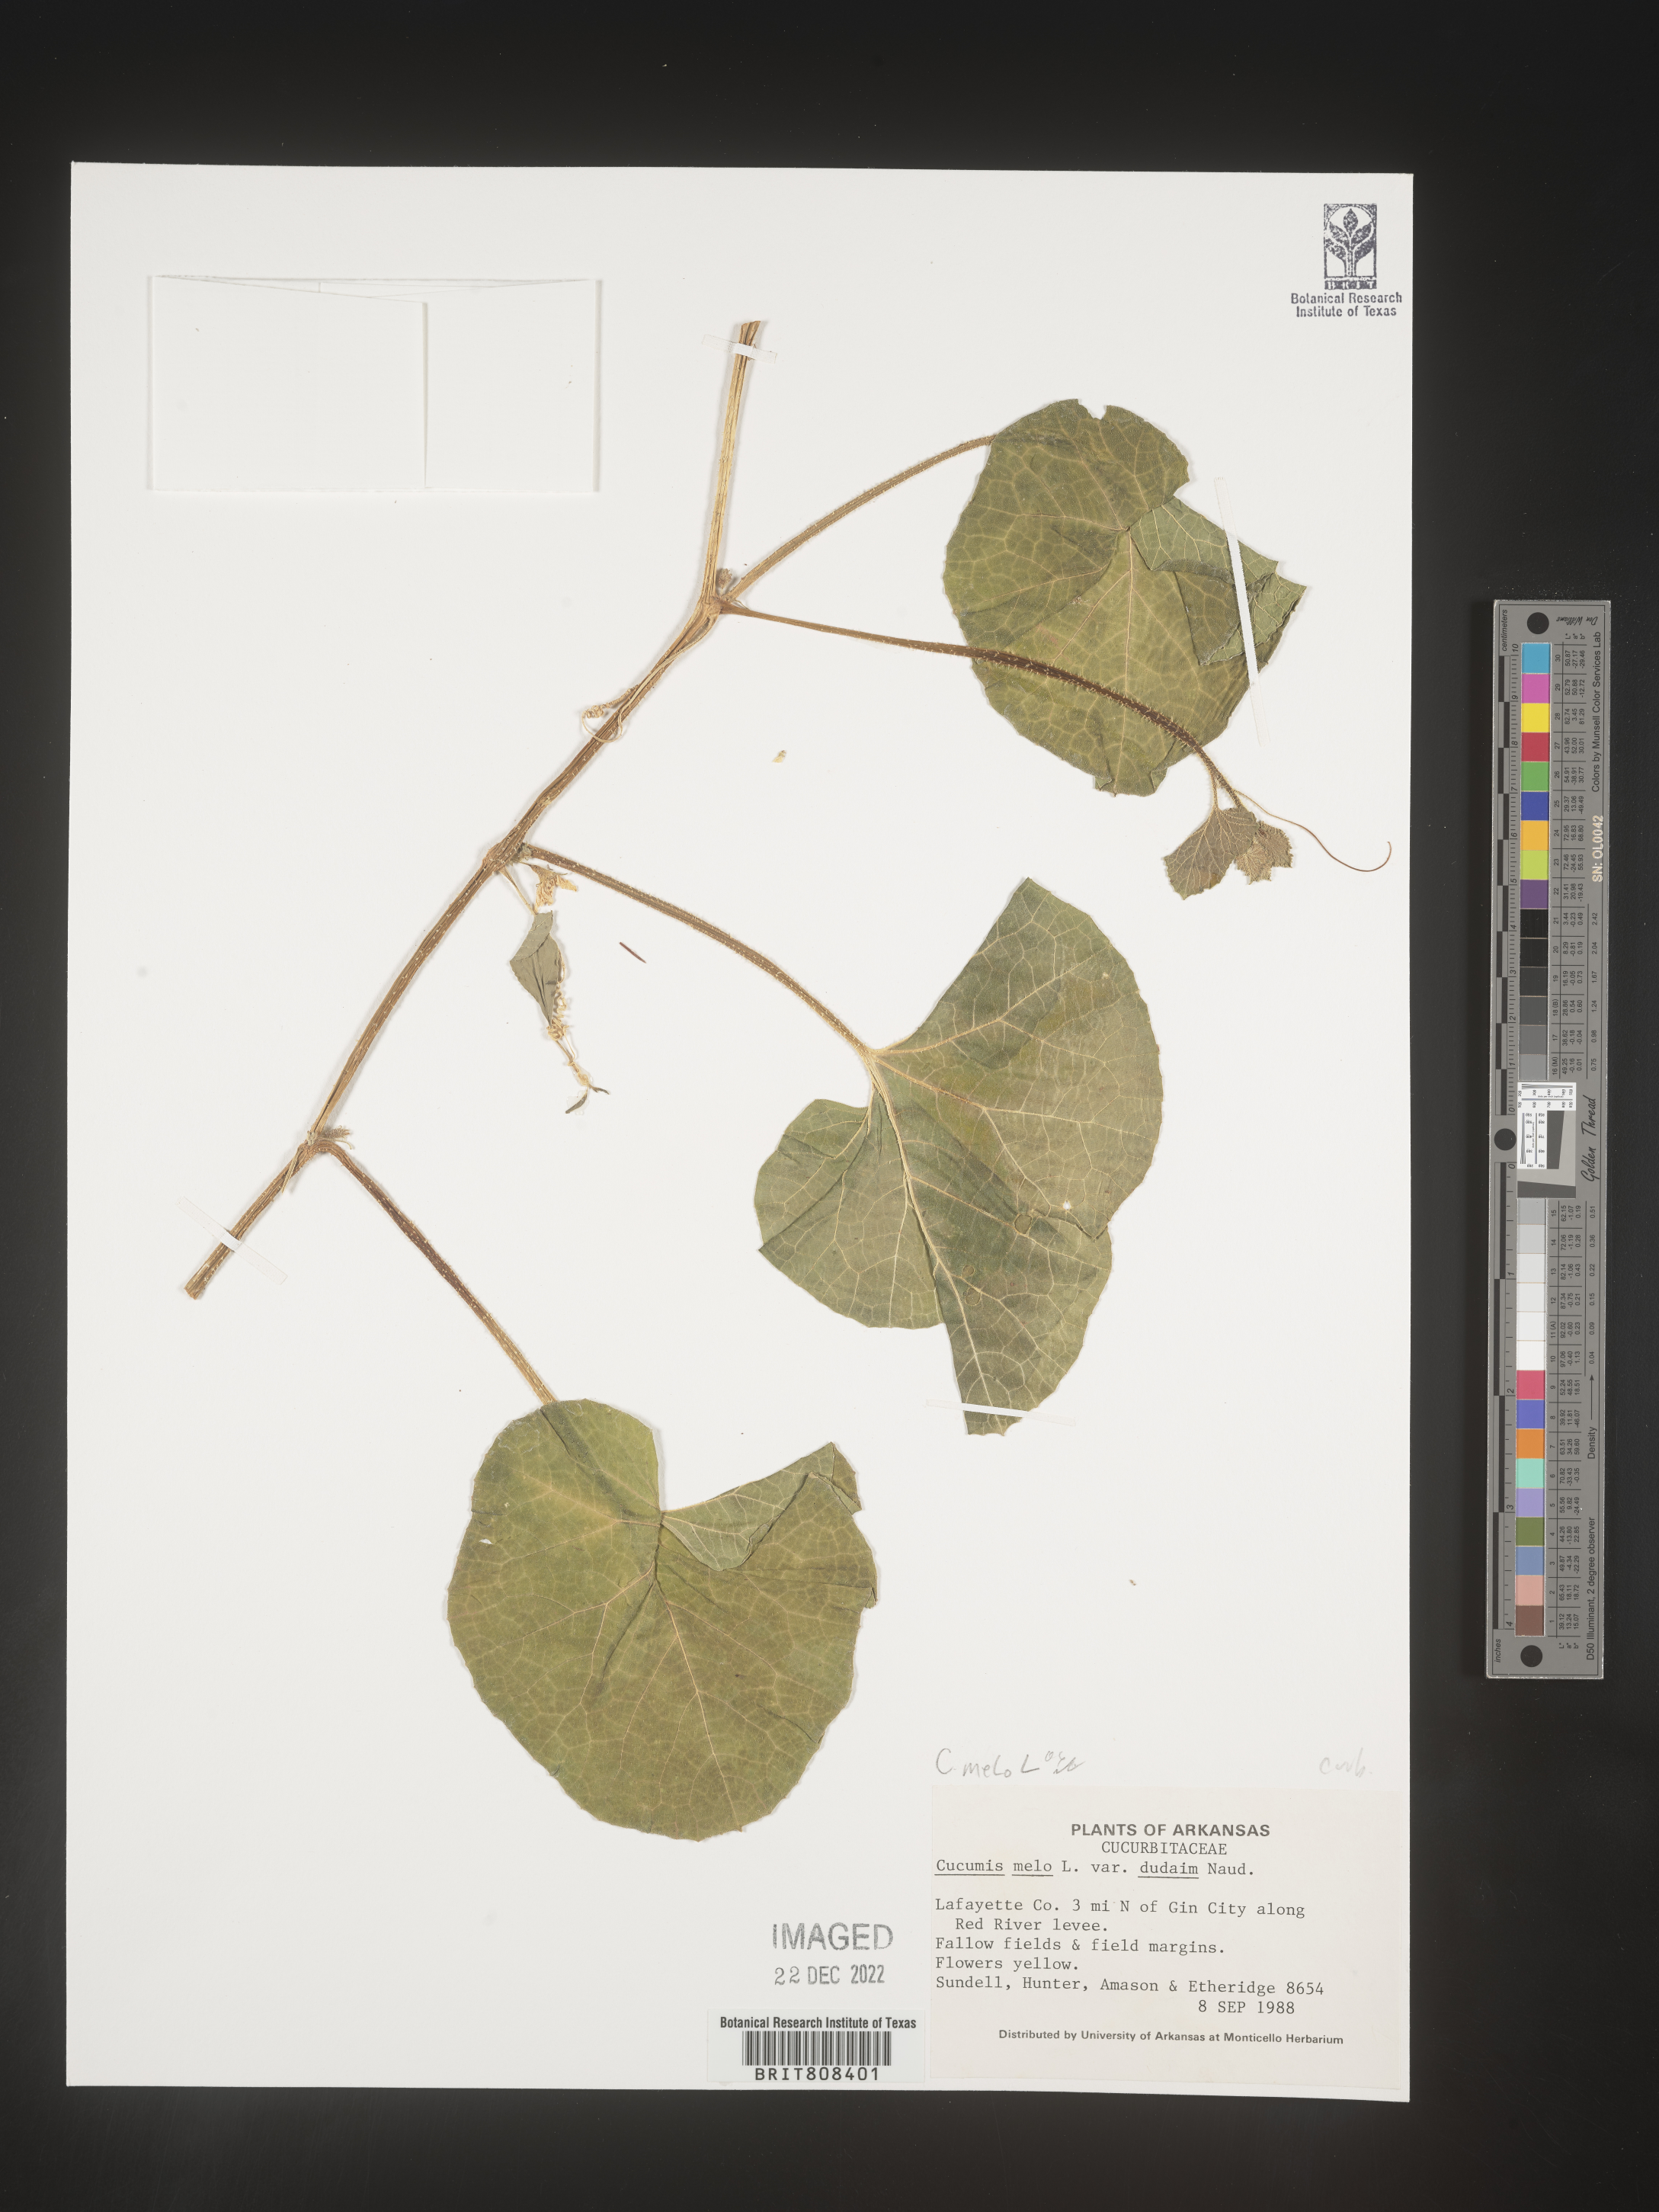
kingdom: Plantae
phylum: Tracheophyta
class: Magnoliopsida
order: Cucurbitales
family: Cucurbitaceae
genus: Cucumis
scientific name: Cucumis
